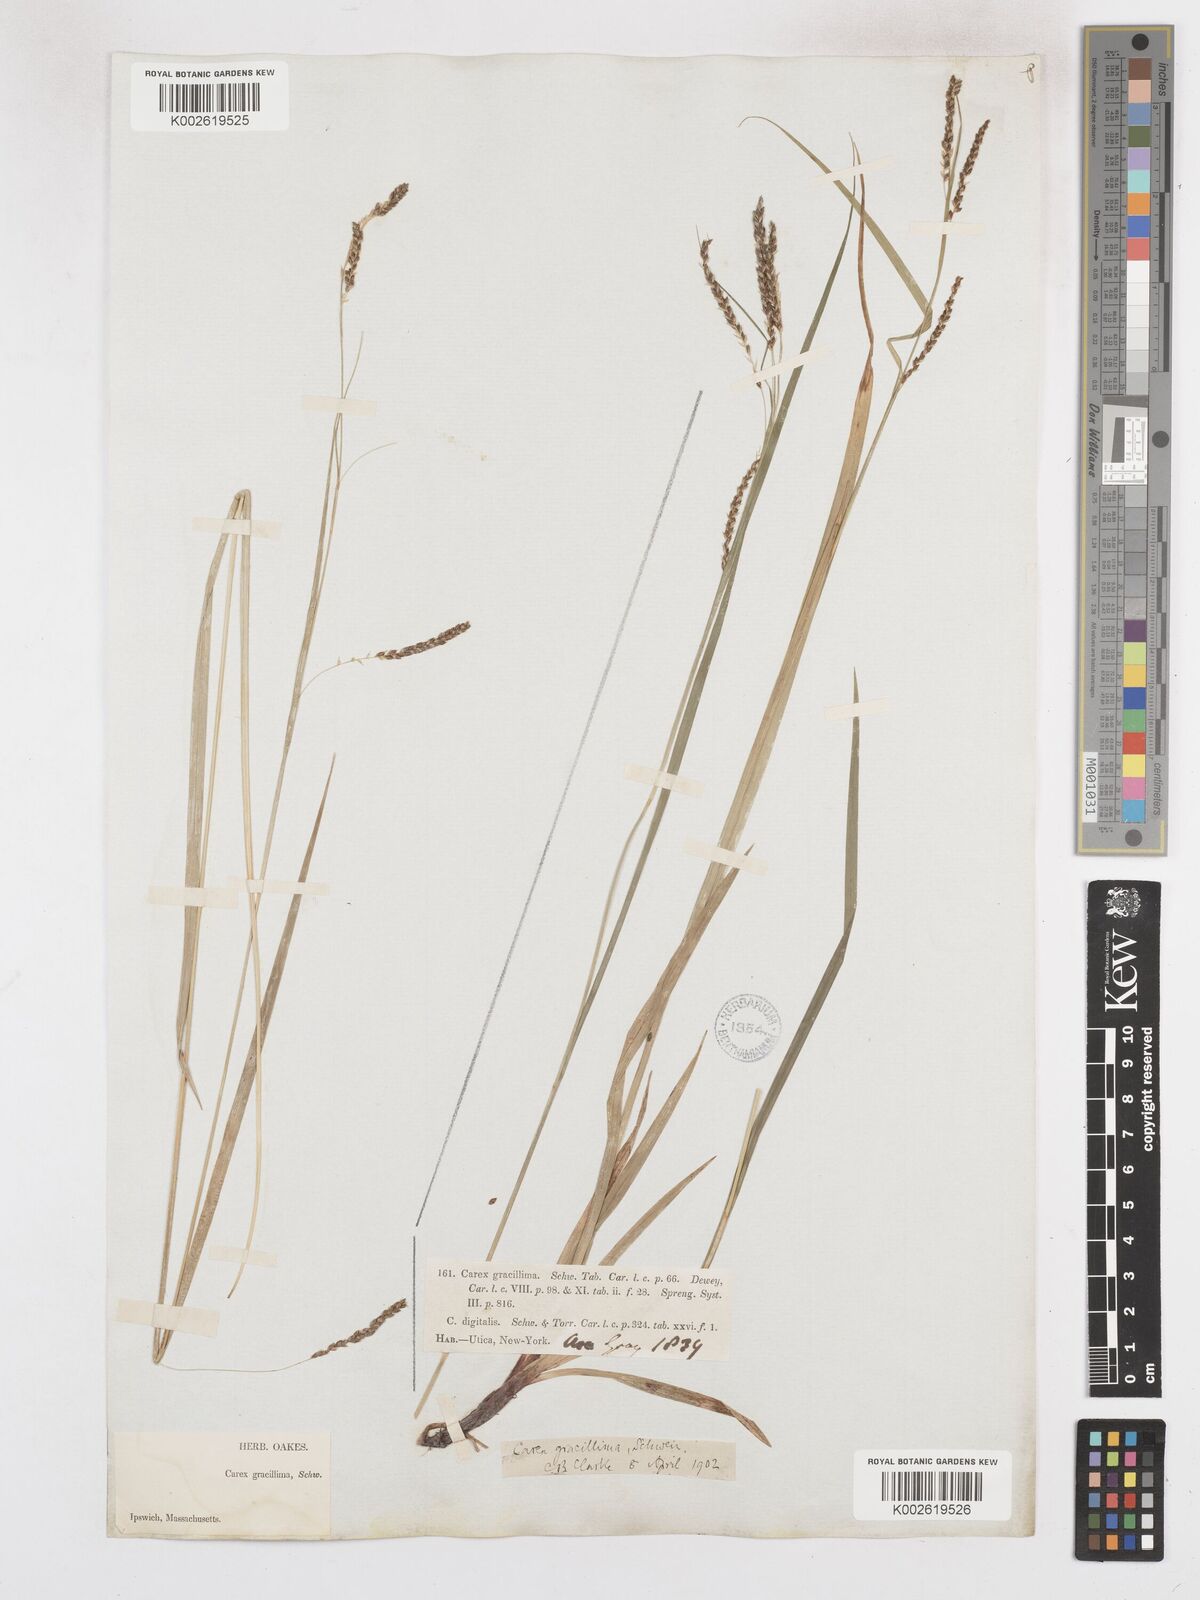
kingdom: Plantae
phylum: Tracheophyta
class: Liliopsida
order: Poales
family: Cyperaceae
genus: Carex
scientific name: Carex gracillima
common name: Graceful sedge
